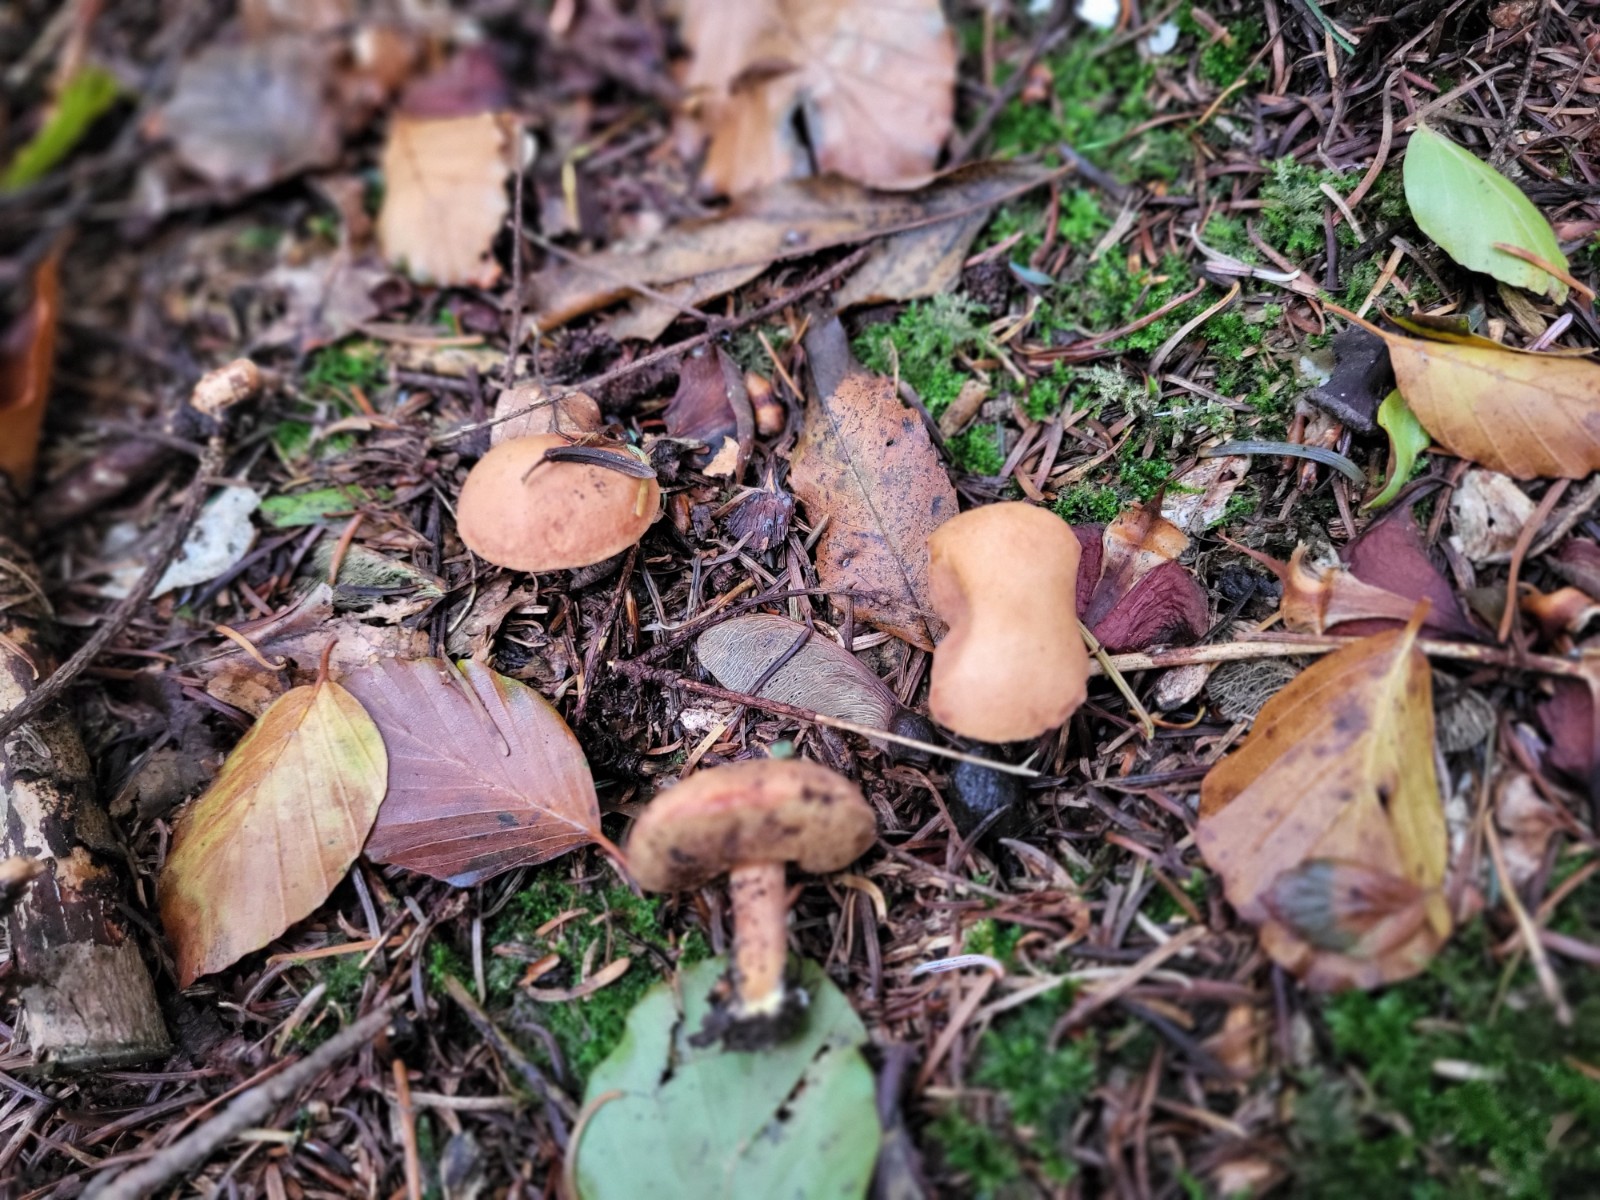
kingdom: Fungi
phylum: Basidiomycota
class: Agaricomycetes
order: Boletales
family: Boletaceae
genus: Chalciporus
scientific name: Chalciporus piperatus
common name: peberrørhat
